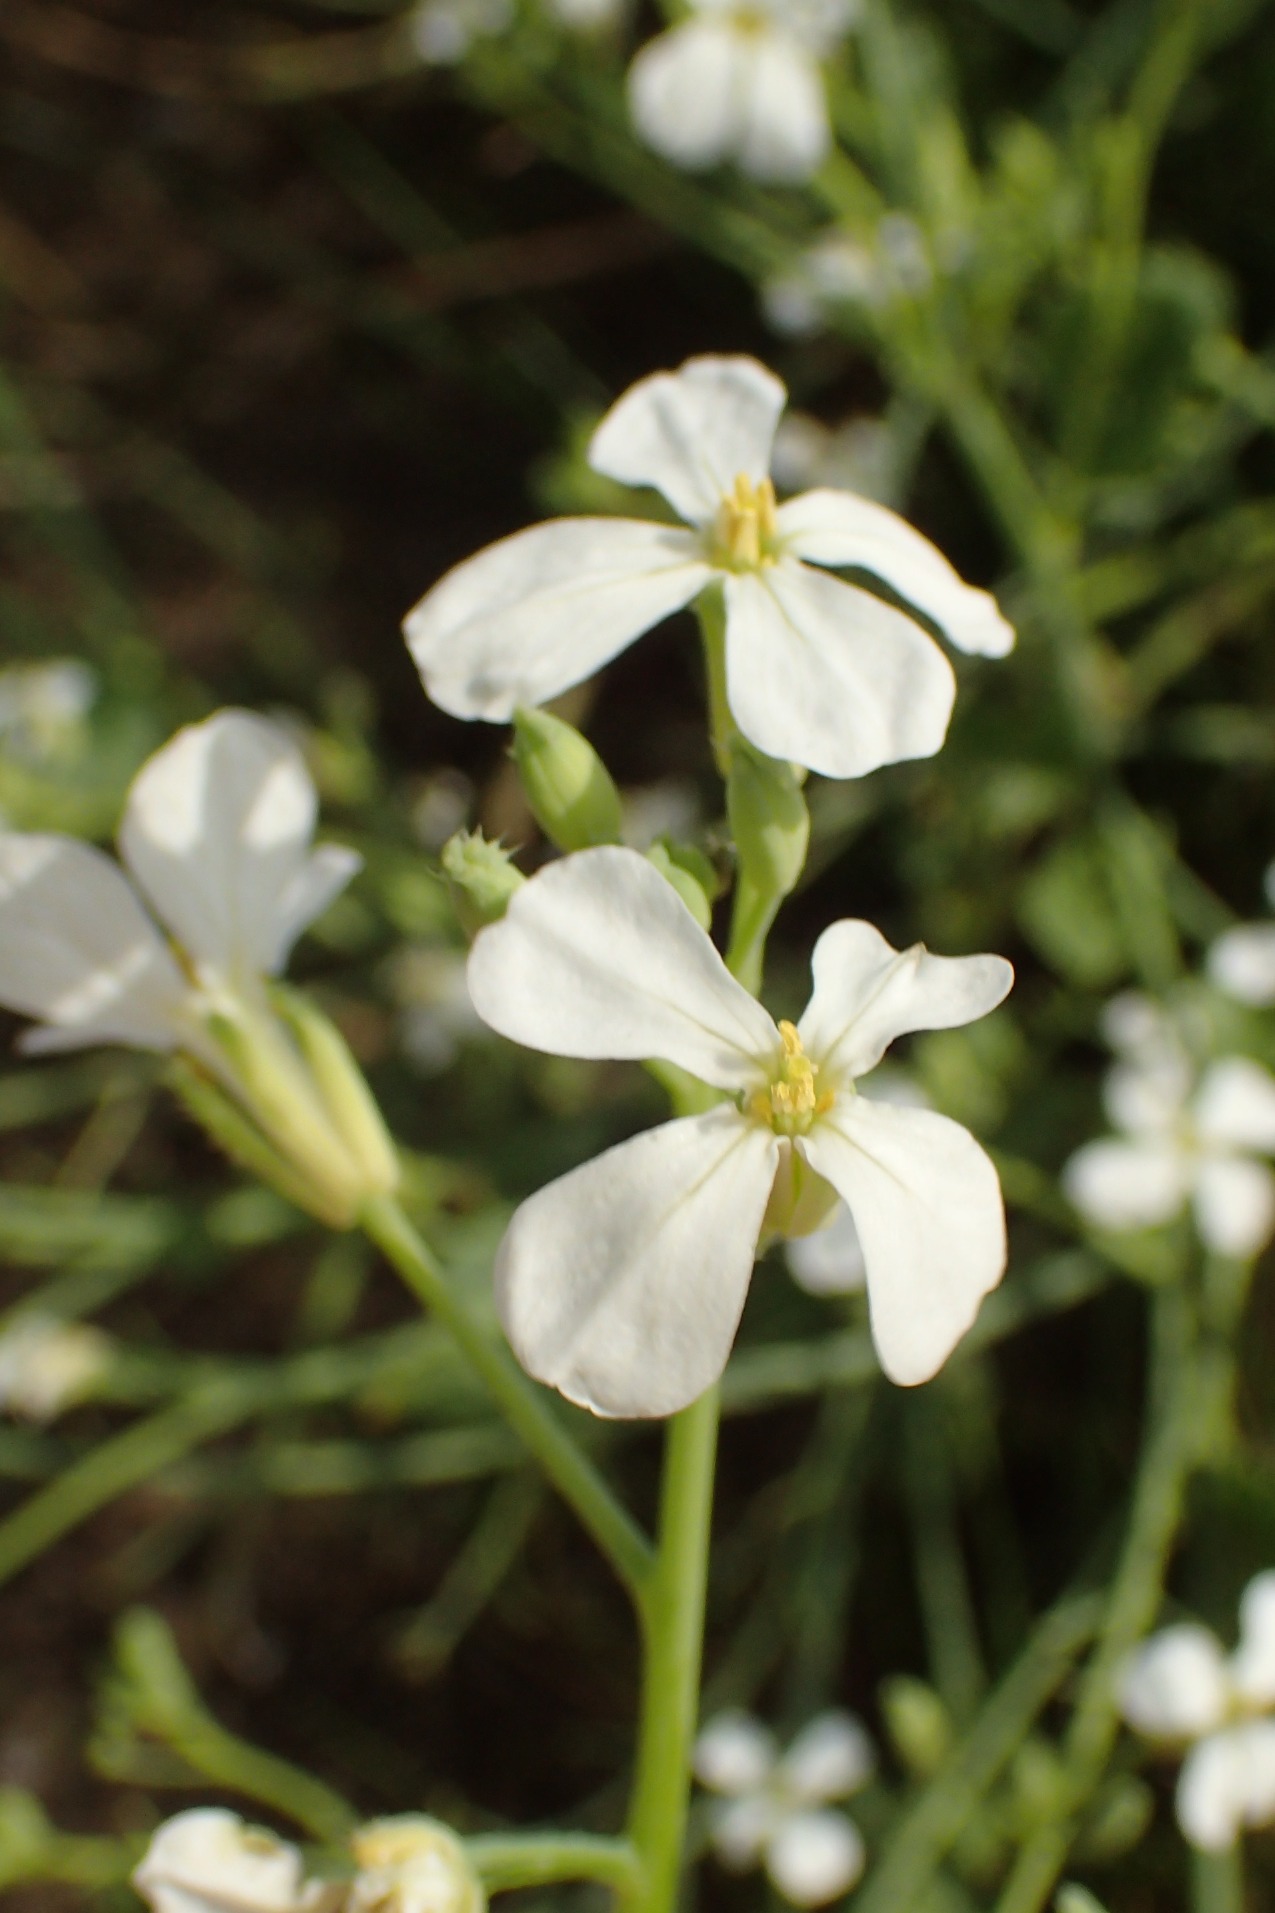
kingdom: Plantae
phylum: Tracheophyta
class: Magnoliopsida
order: Brassicales
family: Brassicaceae
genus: Raphanus
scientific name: Raphanus sativus
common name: Olie-ræddike
